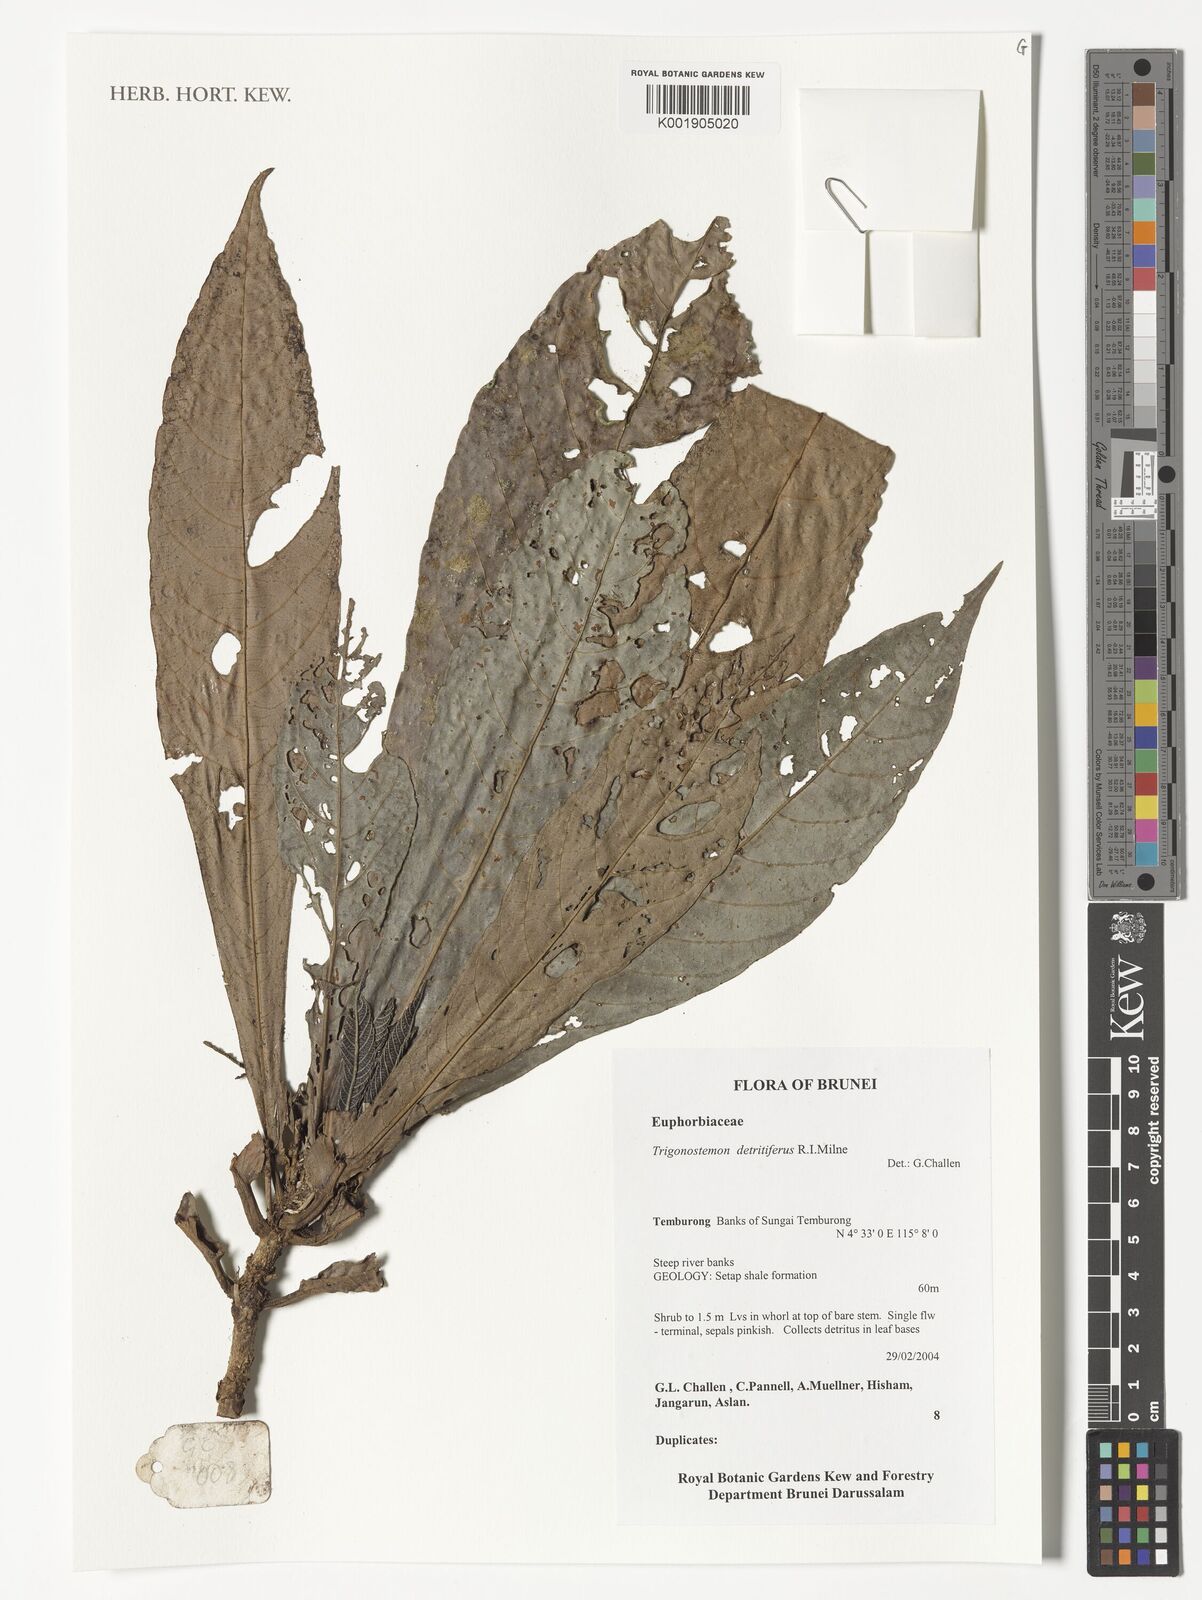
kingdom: Plantae
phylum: Tracheophyta
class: Magnoliopsida
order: Malpighiales
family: Euphorbiaceae
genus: Trigonostemon
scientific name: Trigonostemon detritifer
